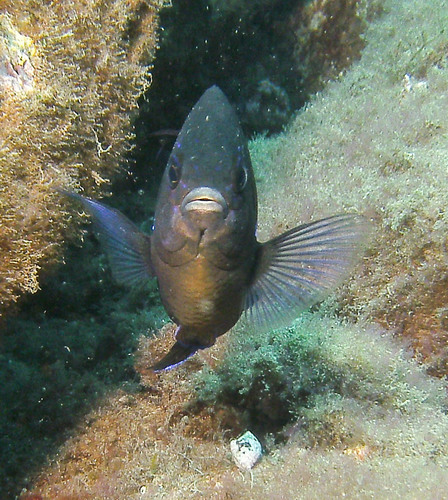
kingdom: Animalia
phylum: Chordata
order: Perciformes
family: Pomacentridae
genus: Abudefduf
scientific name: Abudefduf luridus
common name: Canary damsel
